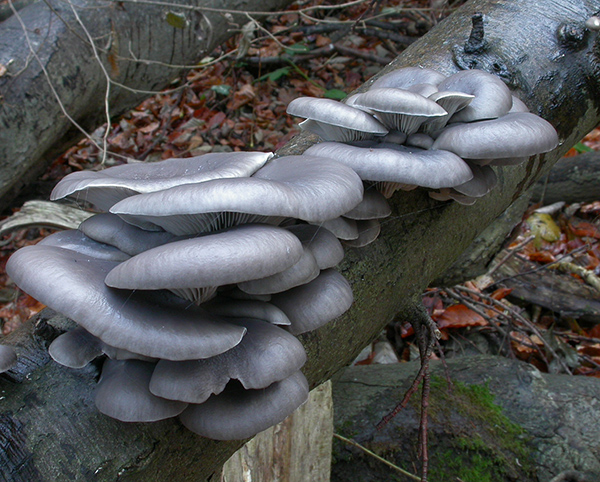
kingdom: Fungi
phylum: Basidiomycota
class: Agaricomycetes
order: Agaricales
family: Pleurotaceae
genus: Pleurotus
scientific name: Pleurotus ostreatus
